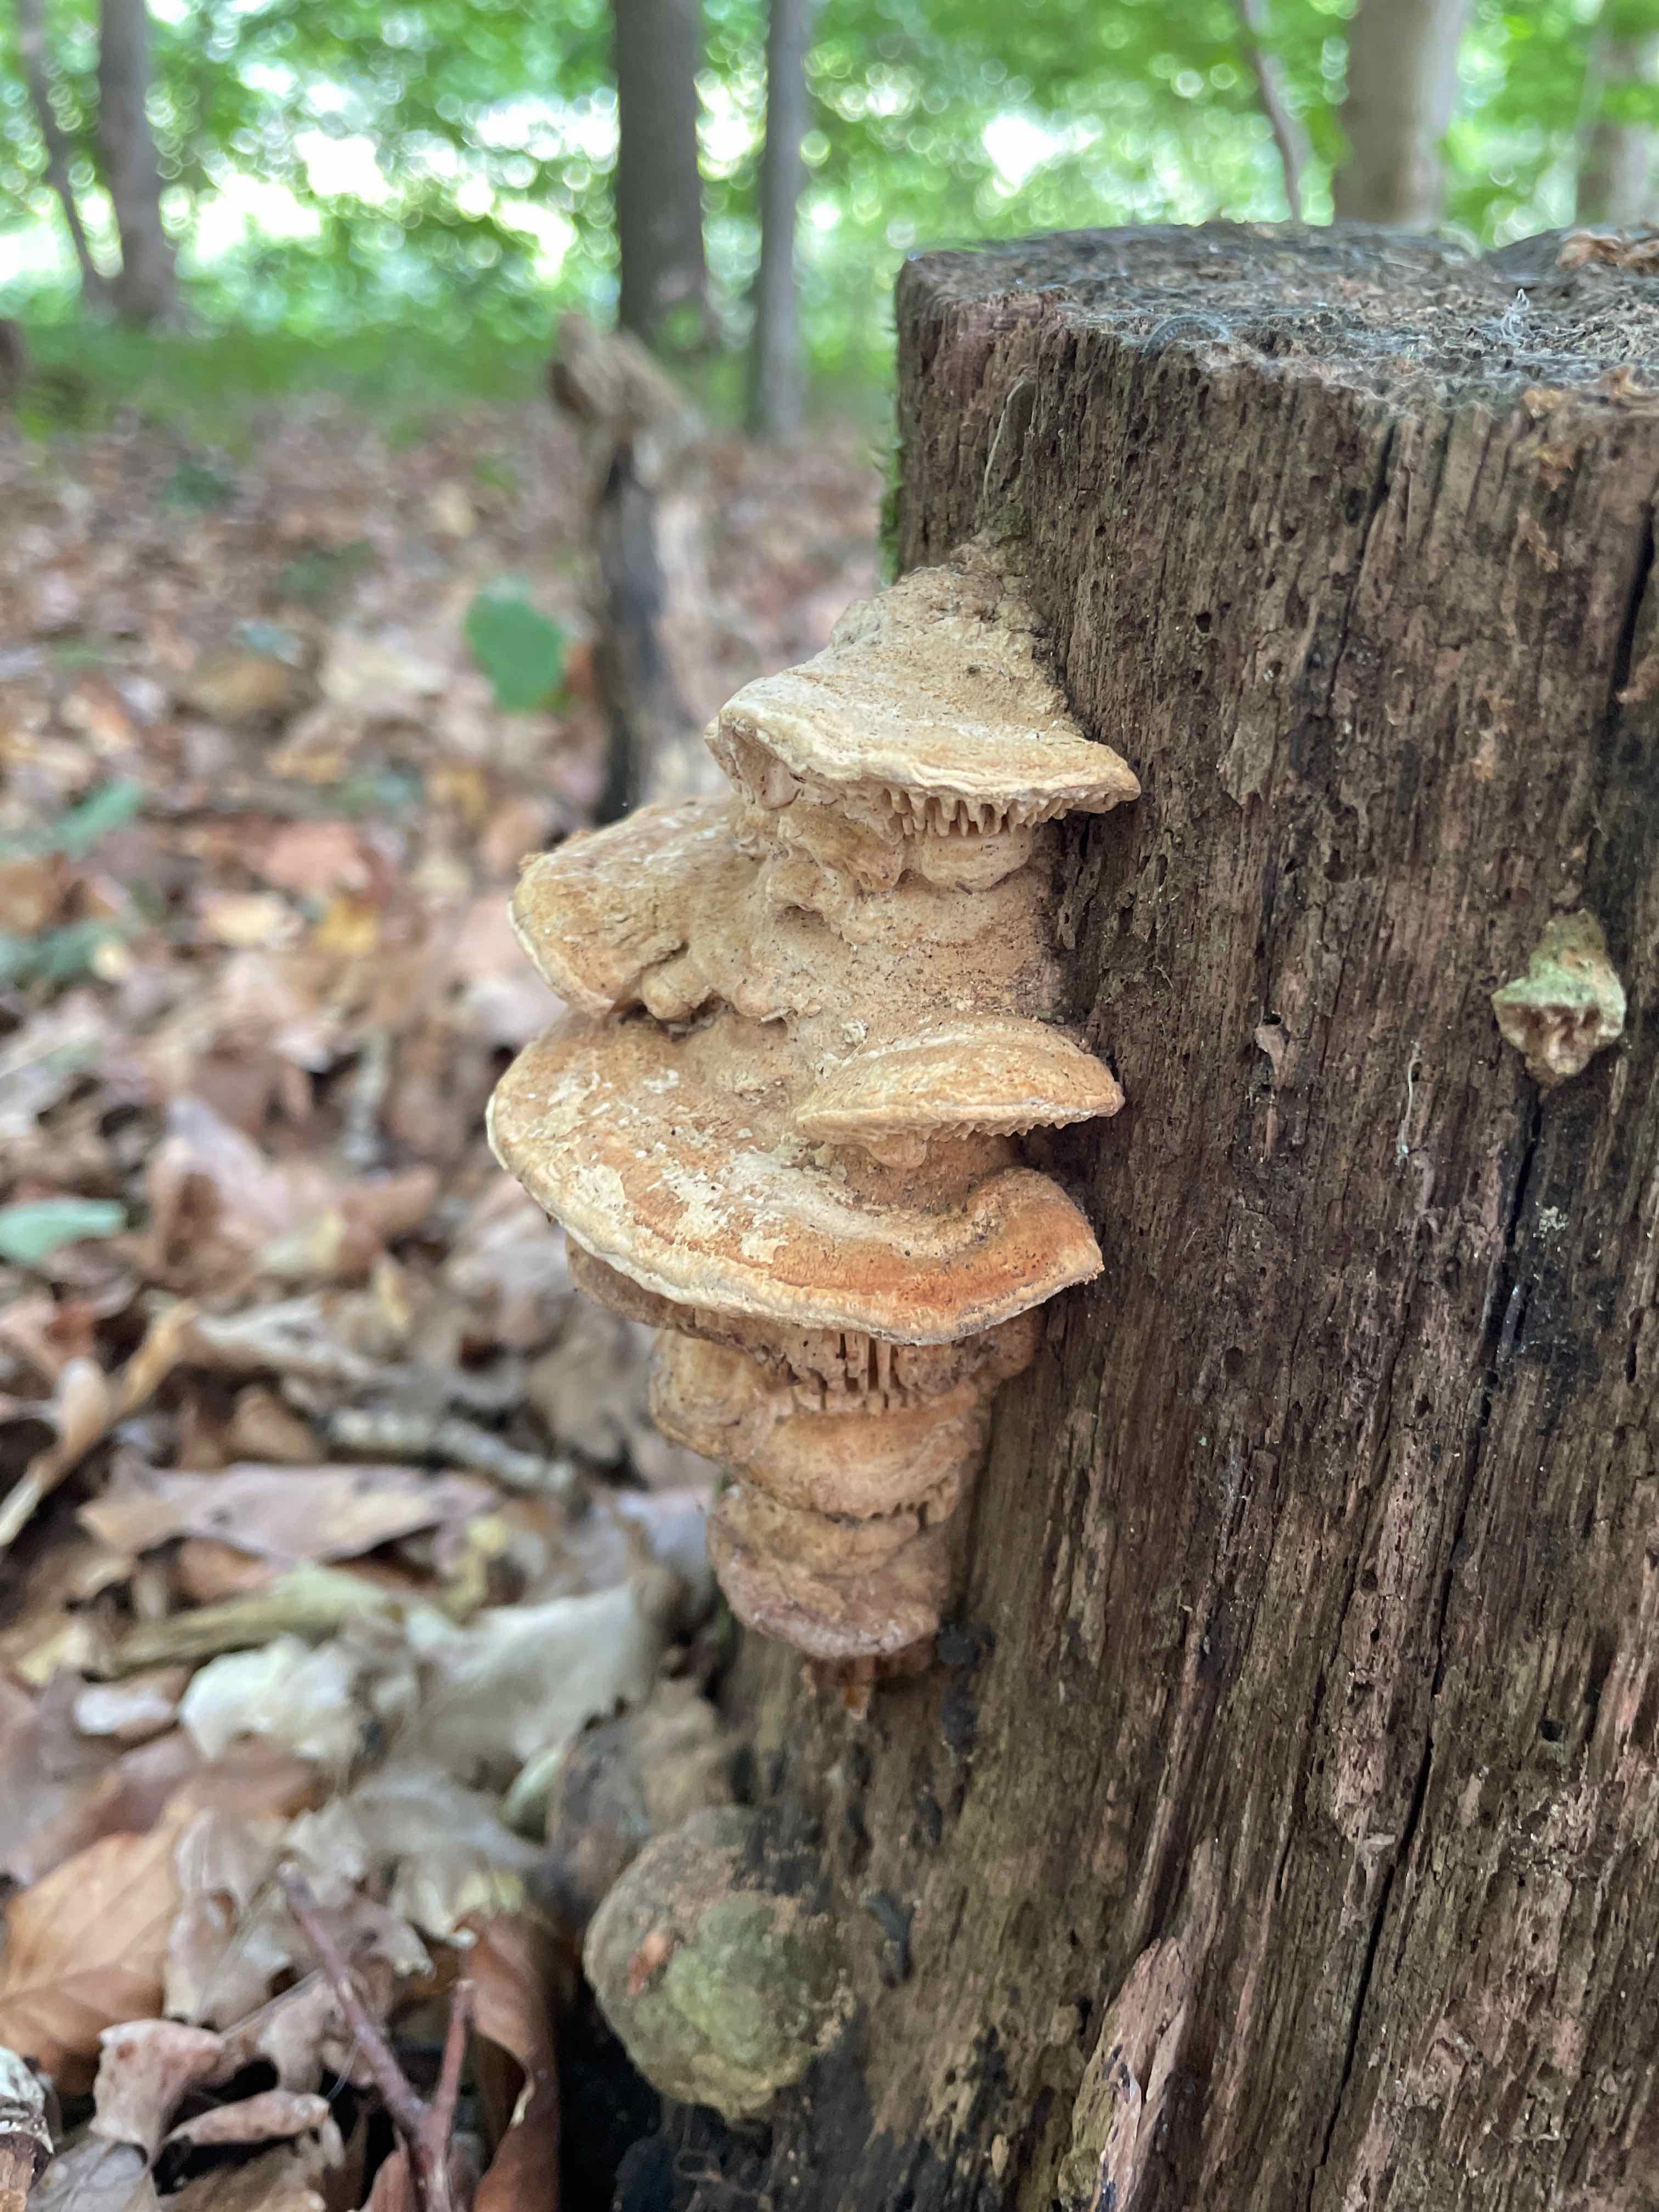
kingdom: Fungi
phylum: Basidiomycota
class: Agaricomycetes
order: Polyporales
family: Fomitopsidaceae
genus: Daedalea
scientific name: Daedalea quercina
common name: ege-labyrintsvamp
